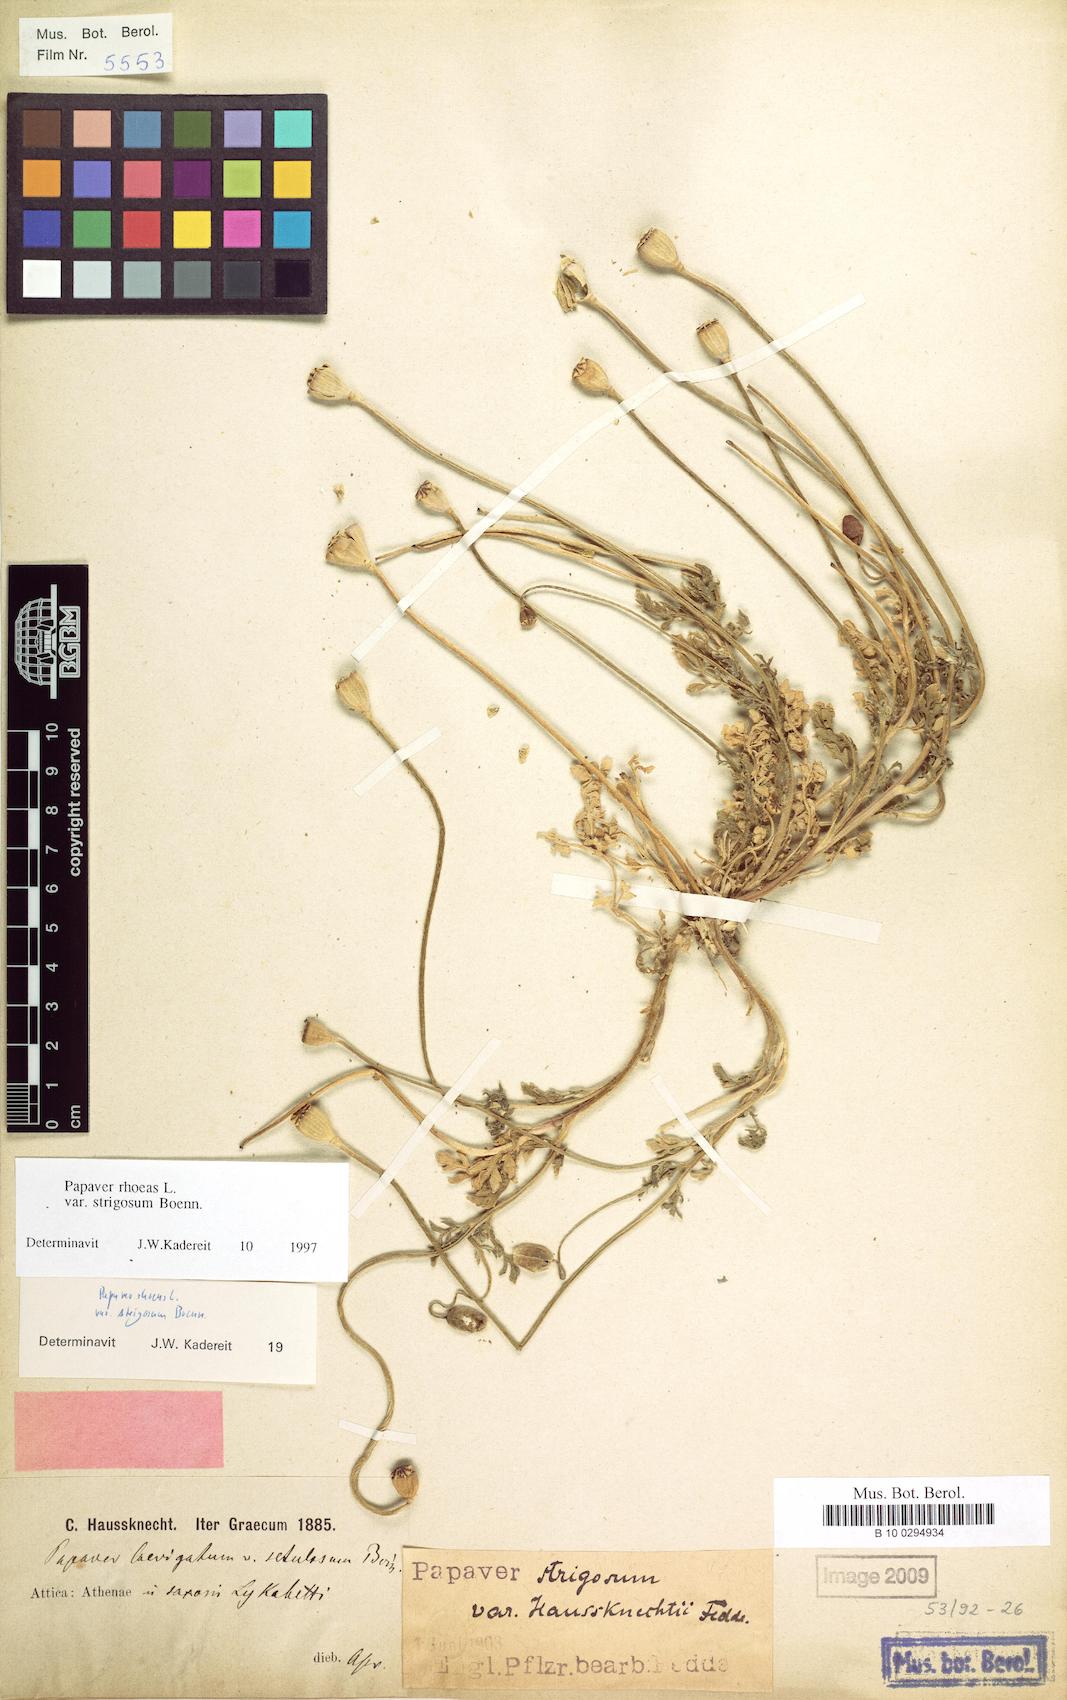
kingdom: Plantae
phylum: Tracheophyta
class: Magnoliopsida
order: Ranunculales
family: Papaveraceae
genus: Papaver
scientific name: Papaver rhoeas
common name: Corn poppy
